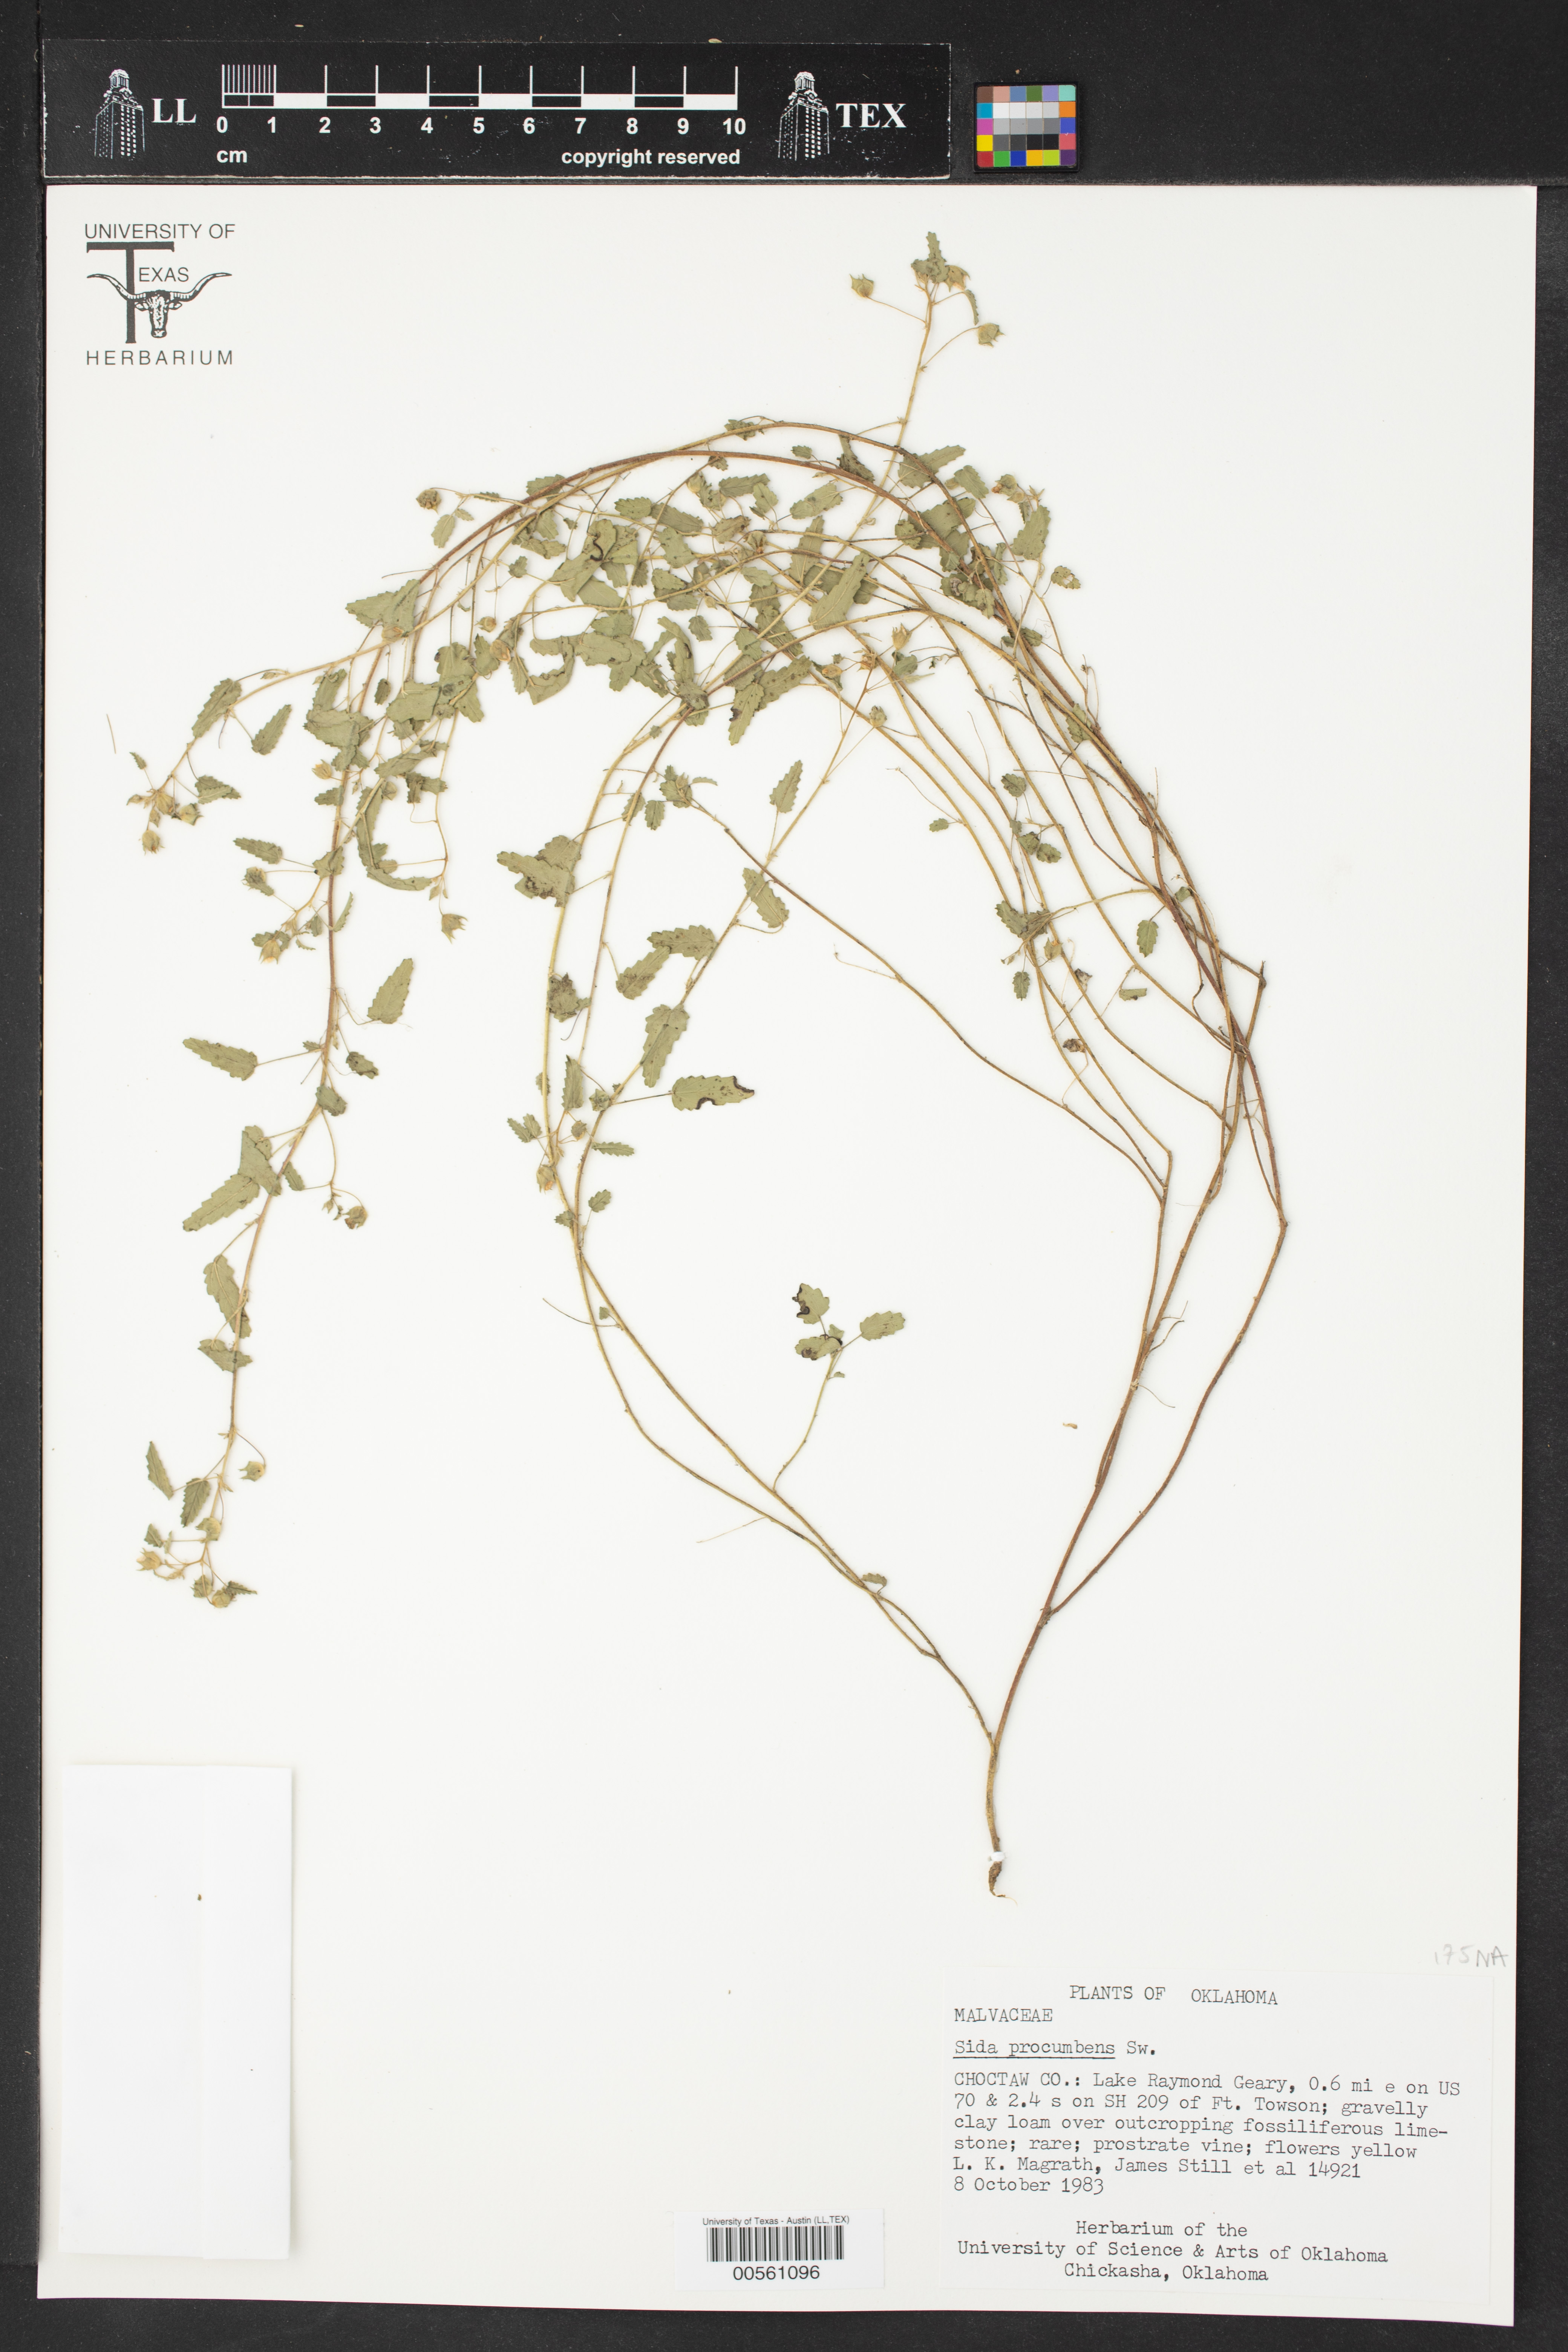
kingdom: Plantae
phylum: Tracheophyta
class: Magnoliopsida
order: Malvales
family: Malvaceae
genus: Sida
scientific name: Sida abutilifolia
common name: Spreading fanpetals
